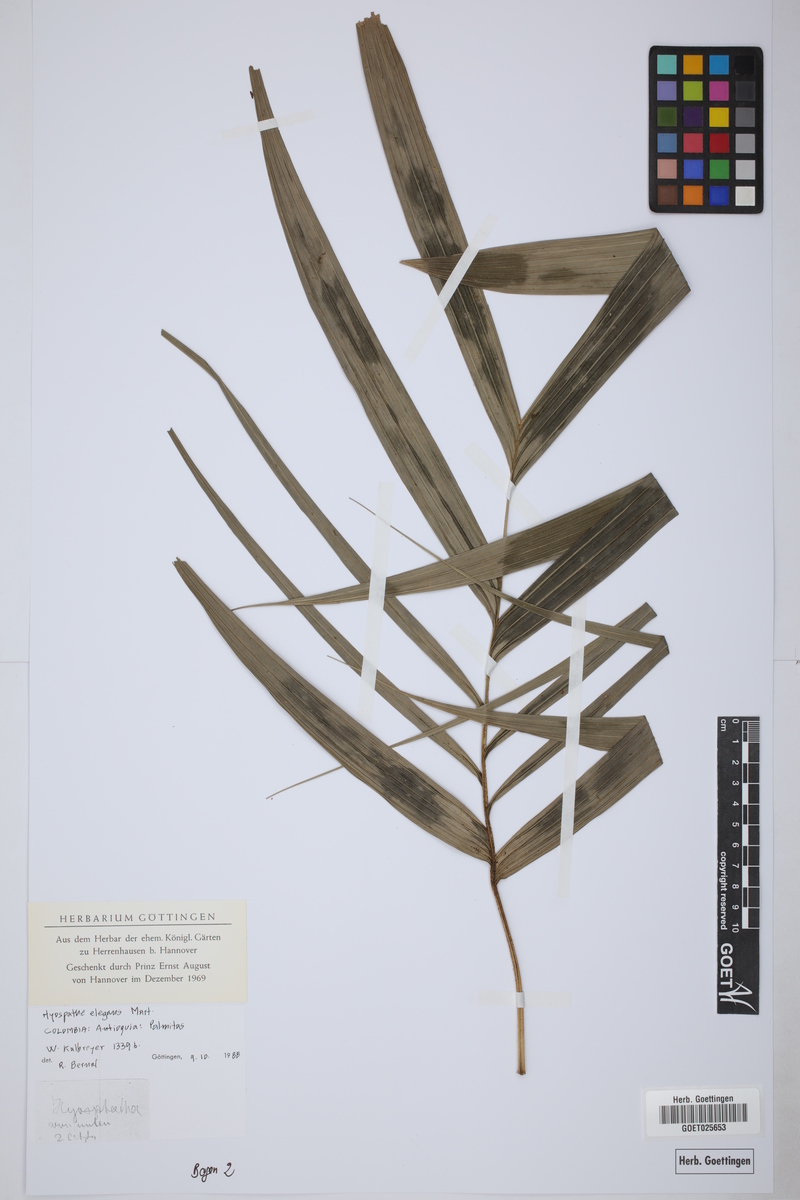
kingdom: Plantae
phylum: Tracheophyta
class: Liliopsida
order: Arecales
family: Arecaceae
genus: Hyospathe
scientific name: Hyospathe elegans
